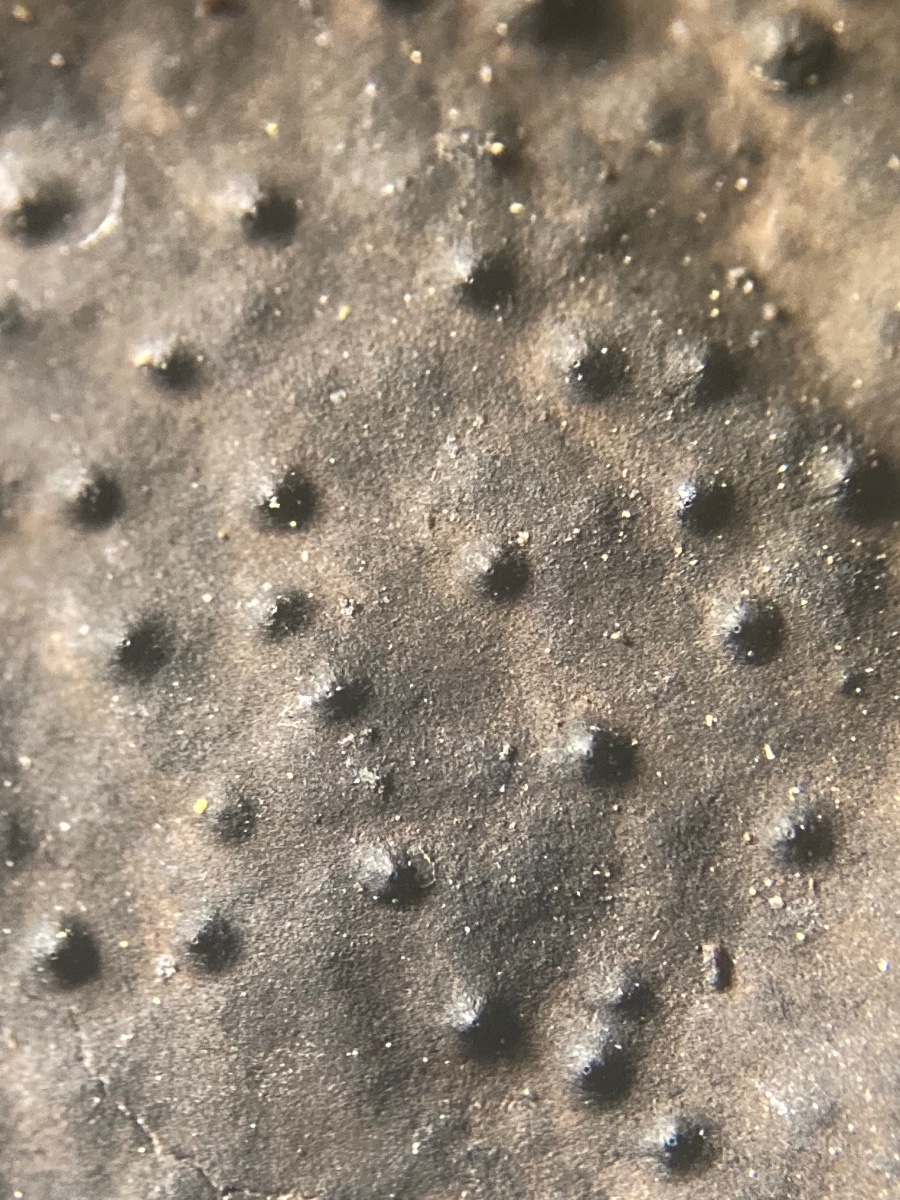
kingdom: Fungi
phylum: Ascomycota
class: Sordariomycetes
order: Xylariales
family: Xylariaceae
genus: Kretzschmaria
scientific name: Kretzschmaria deusta
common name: stor kulsvamp
